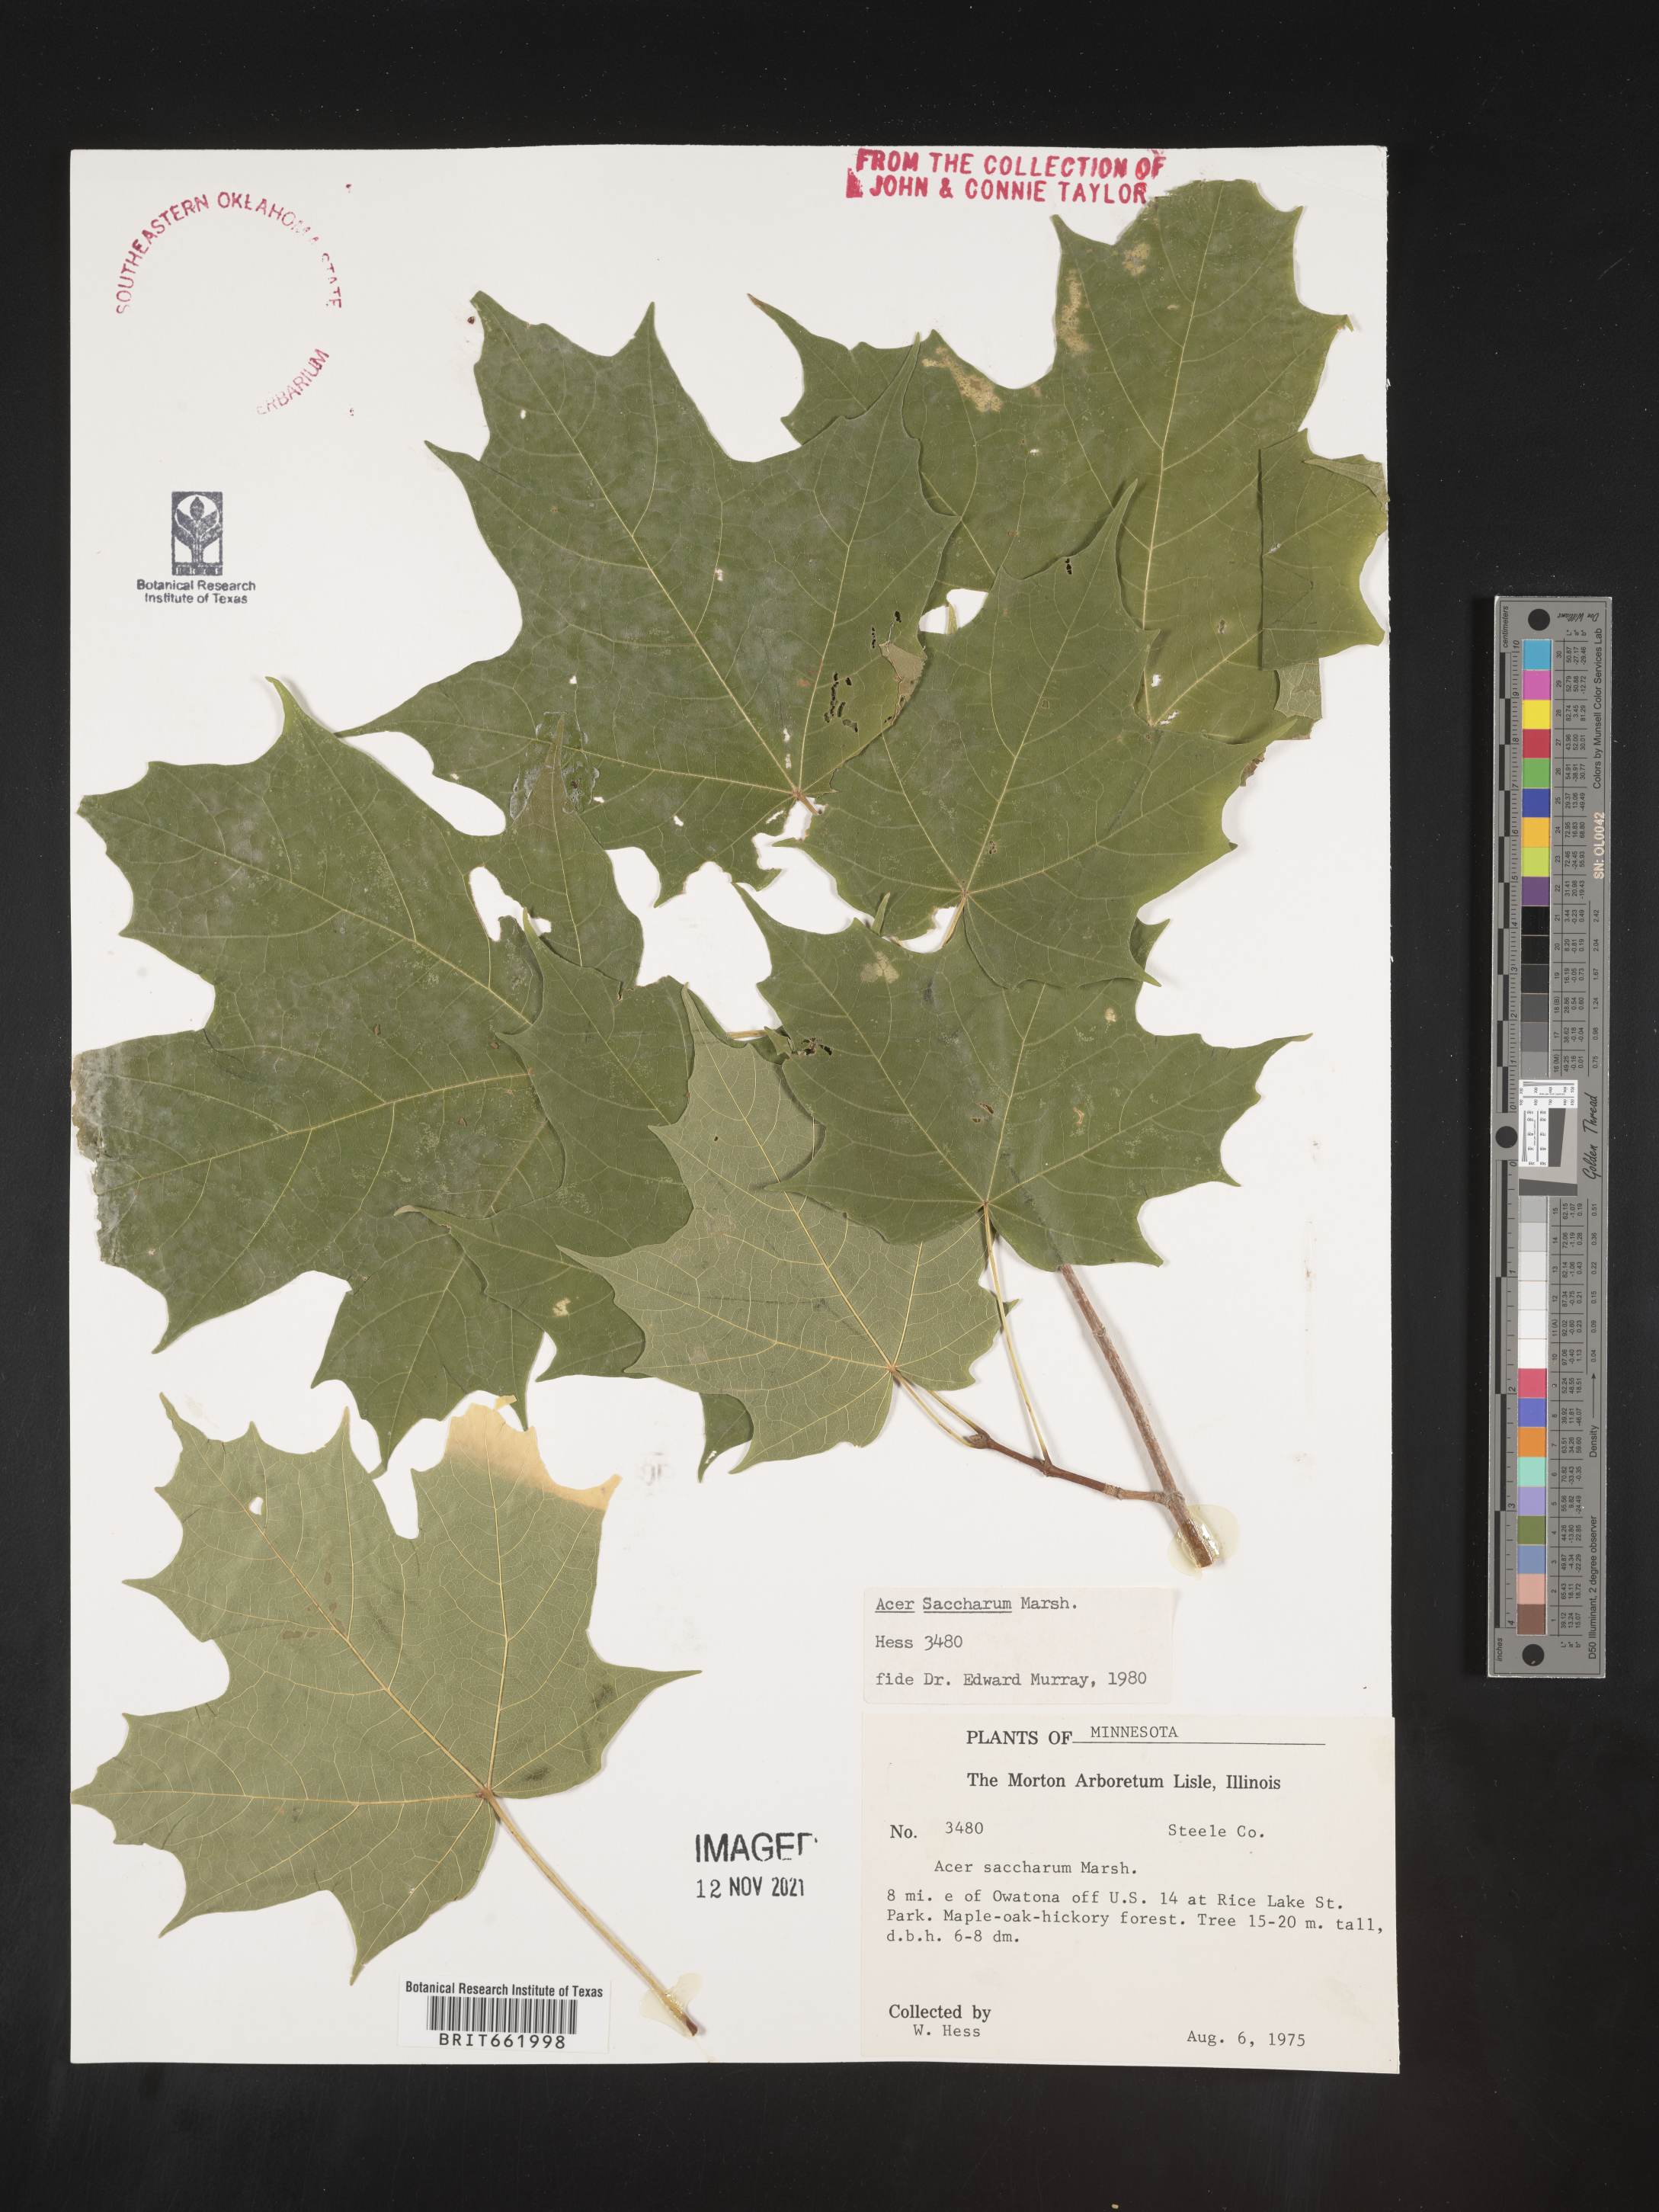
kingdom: Plantae
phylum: Tracheophyta
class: Magnoliopsida
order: Sapindales
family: Sapindaceae
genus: Acer
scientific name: Acer saccharum
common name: Sugar maple
